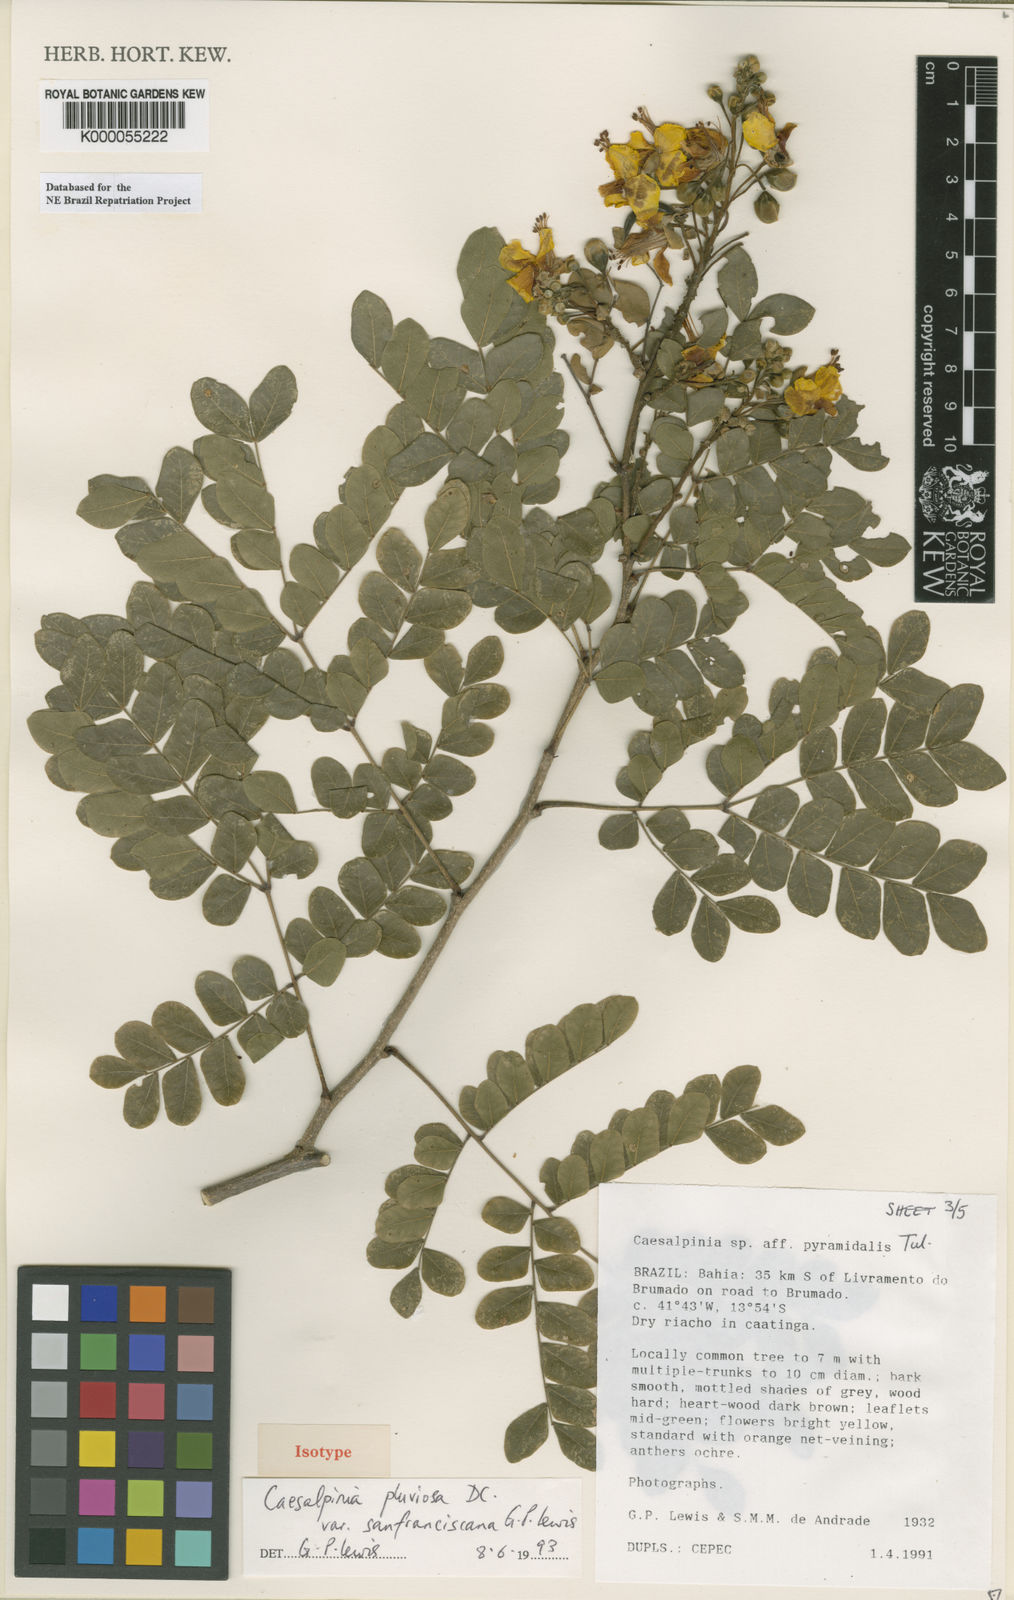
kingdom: Plantae
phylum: Tracheophyta
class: Magnoliopsida
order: Fabales
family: Fabaceae
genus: Cenostigma
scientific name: Cenostigma pluviosum
